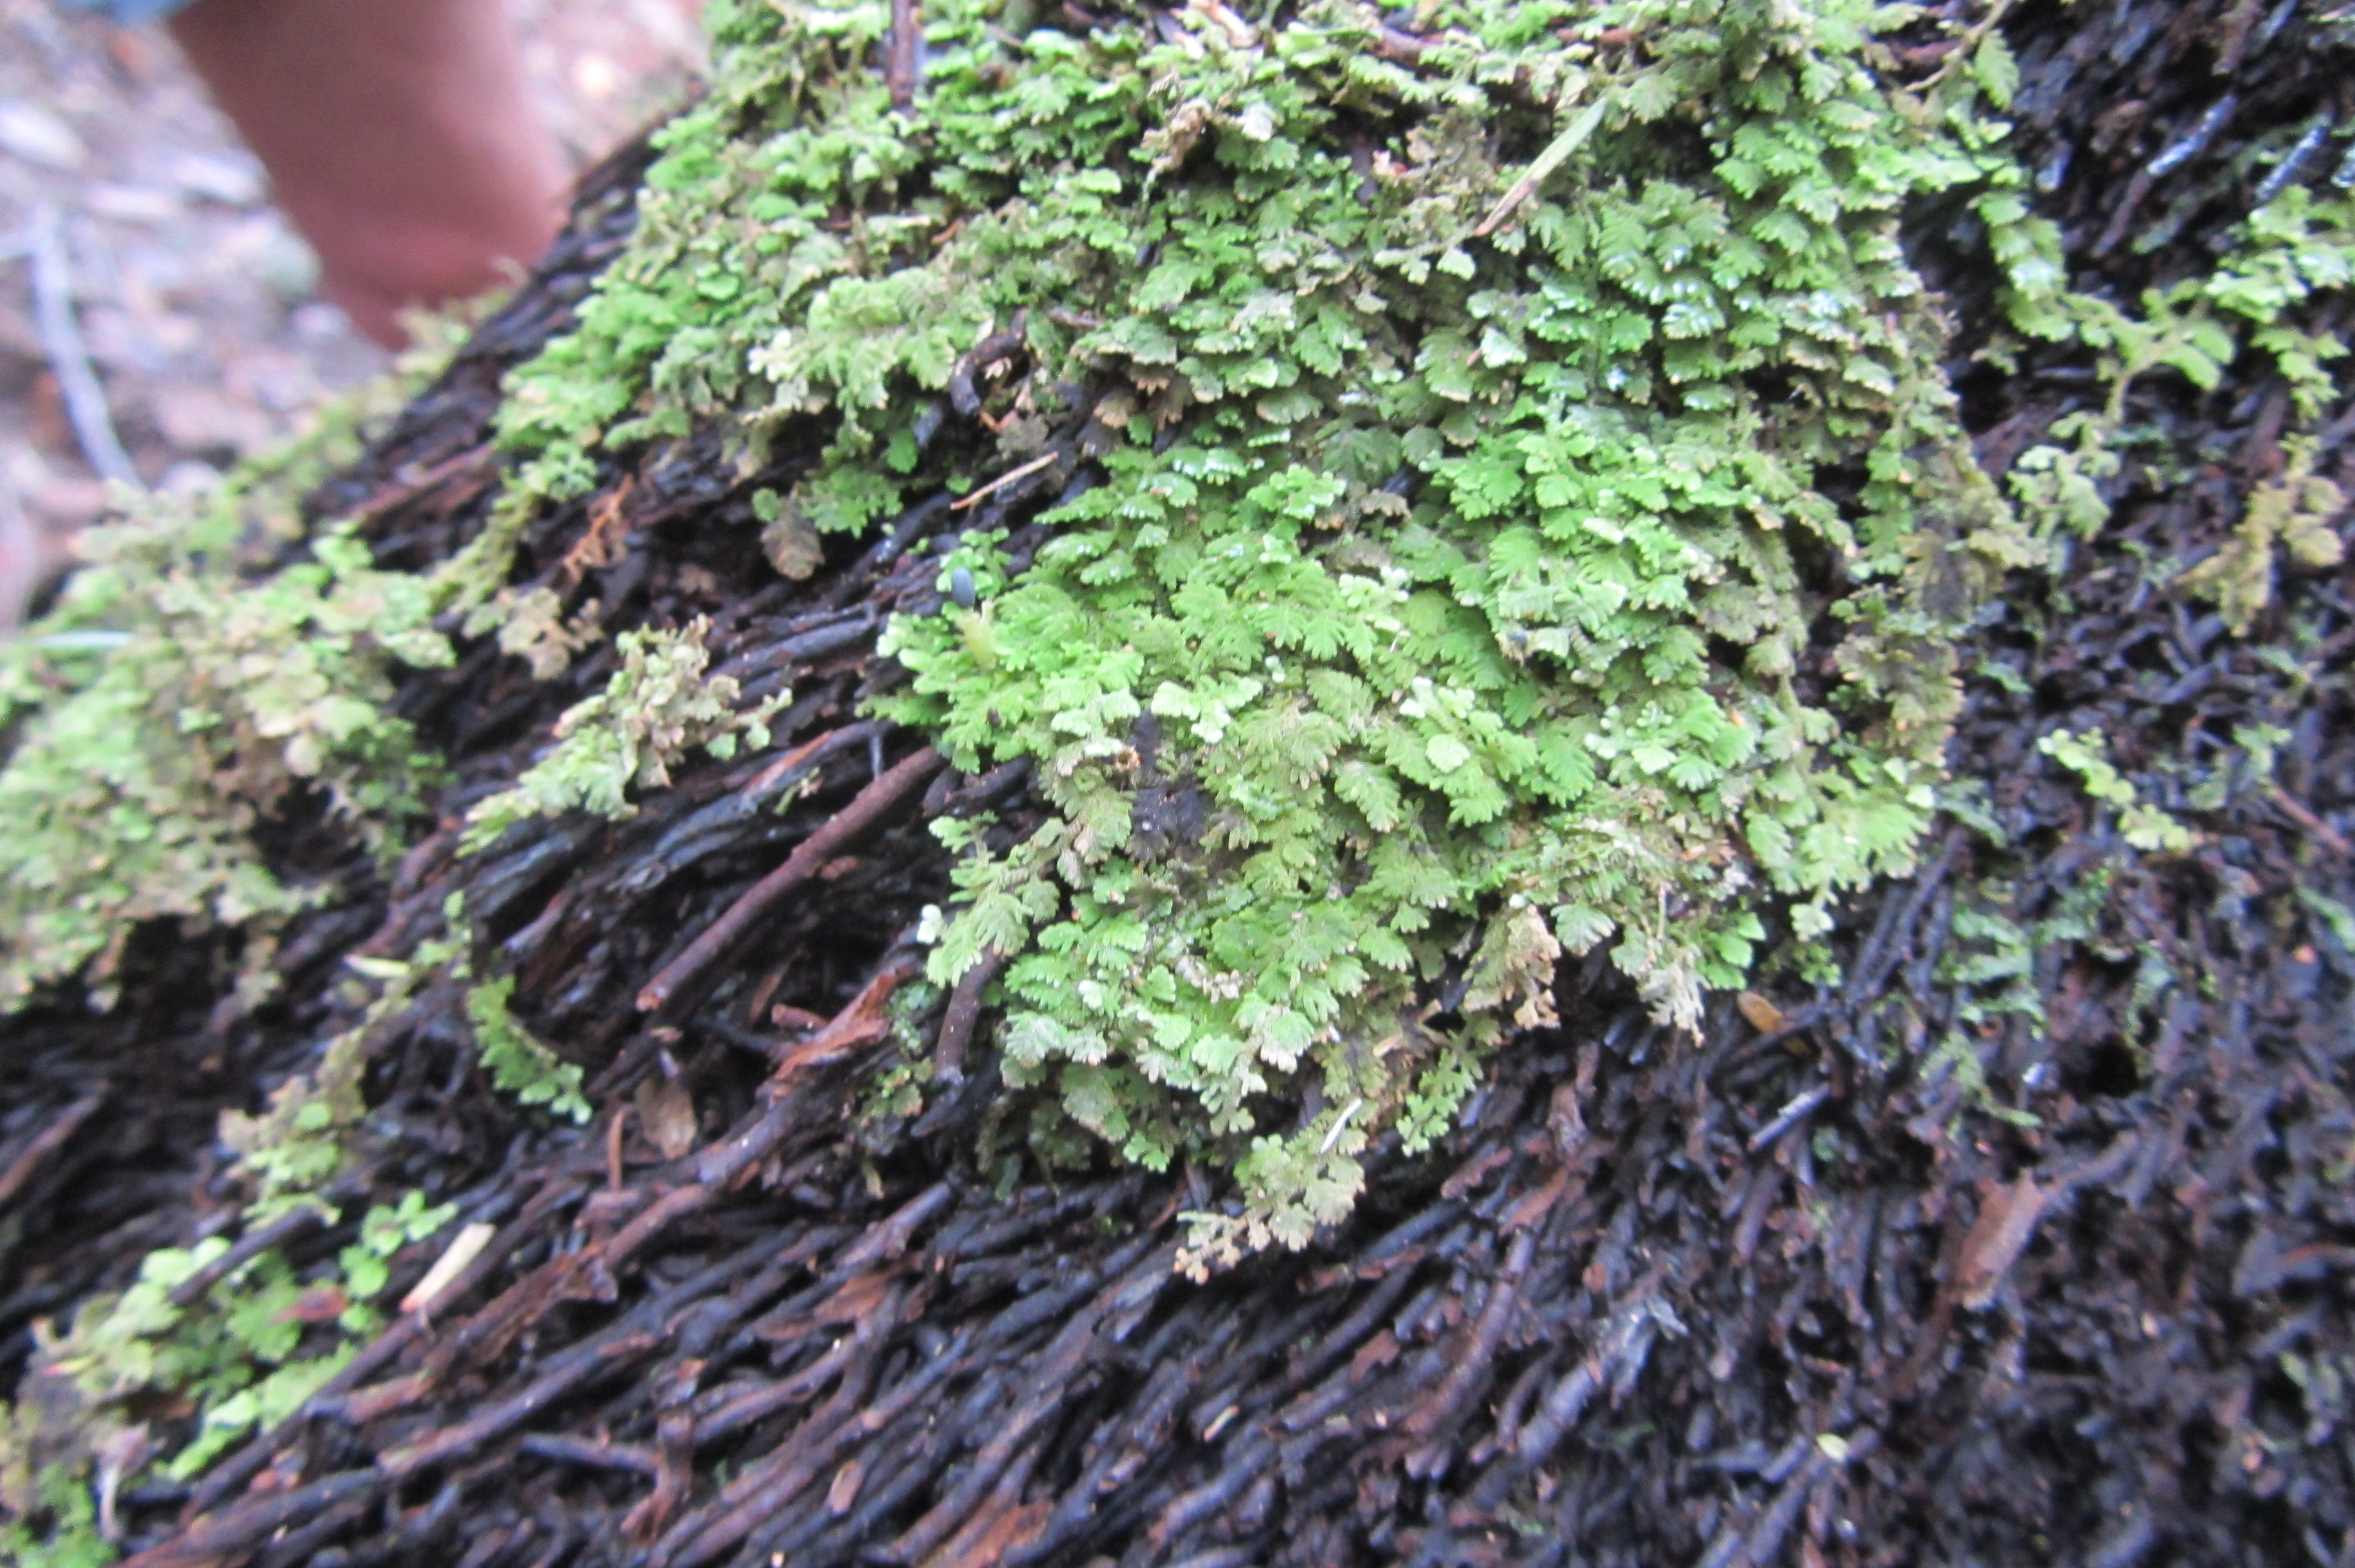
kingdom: Plantae
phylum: Marchantiophyta
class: Jungermanniopsida
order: Jungermanniales
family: Trichocoleaceae
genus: Trichocolea
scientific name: Trichocolea rigida
